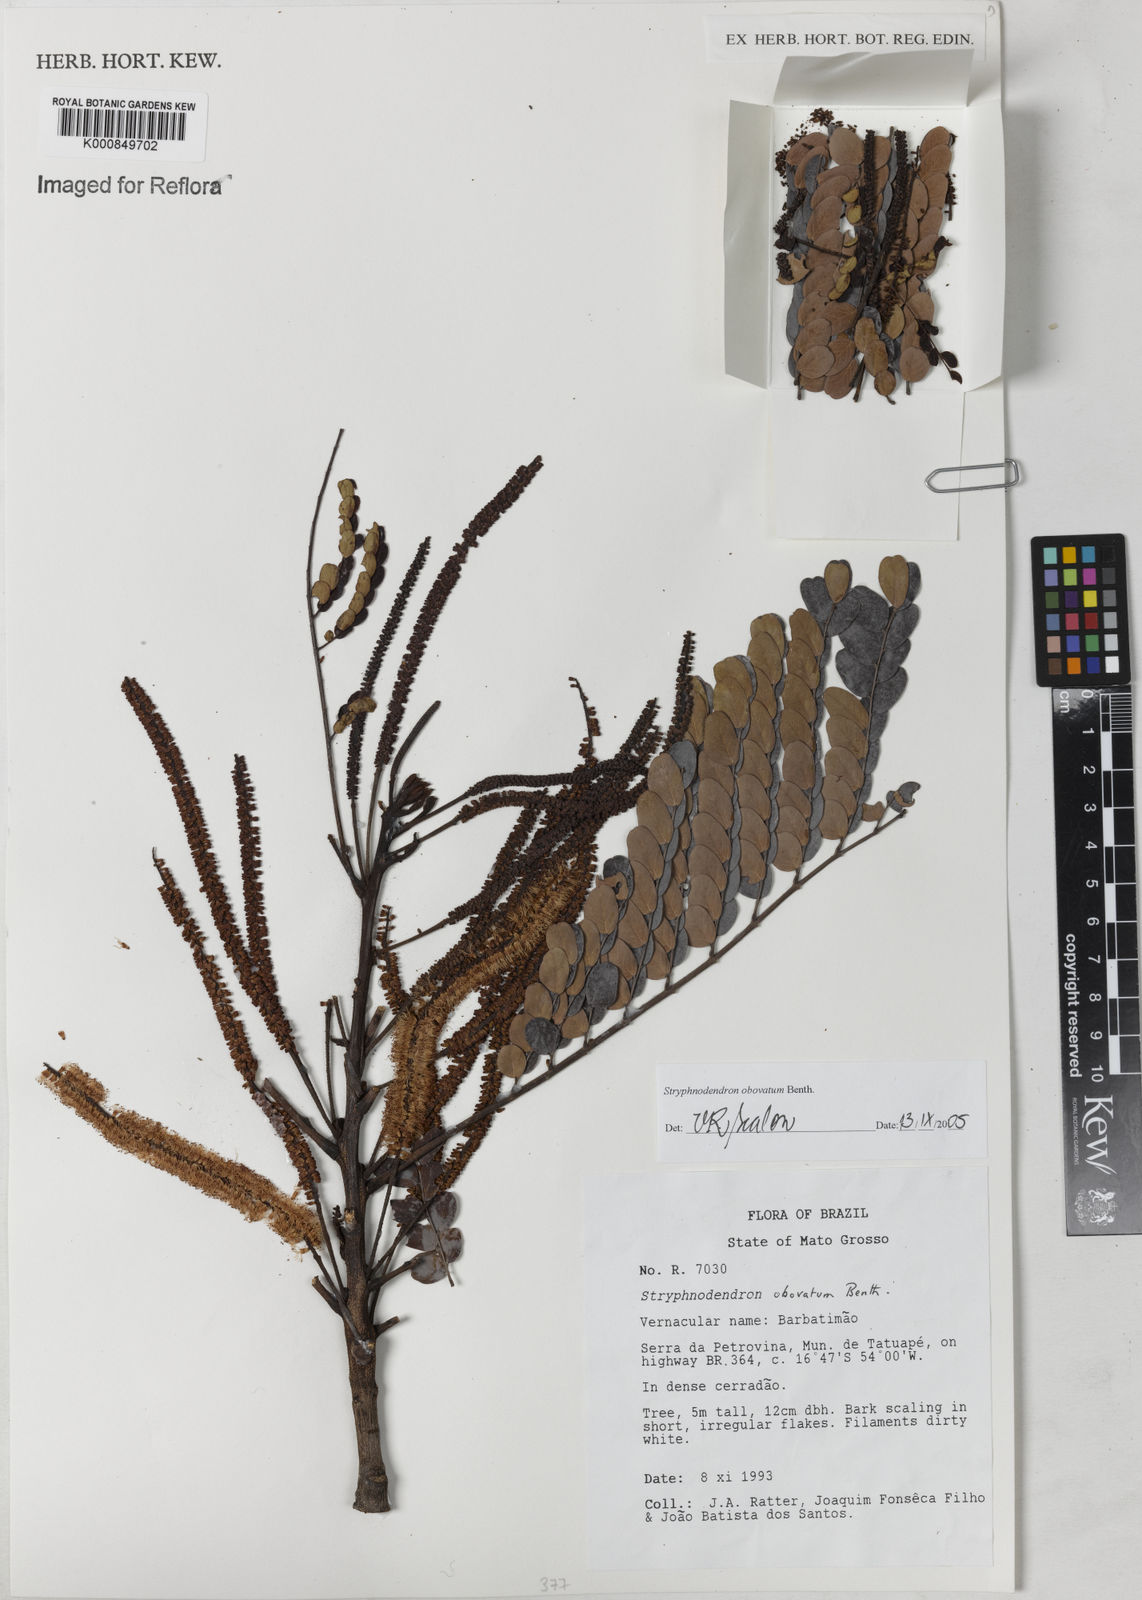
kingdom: Plantae
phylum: Tracheophyta
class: Magnoliopsida
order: Fabales
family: Fabaceae
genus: Stryphnodendron
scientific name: Stryphnodendron rotundifolium
